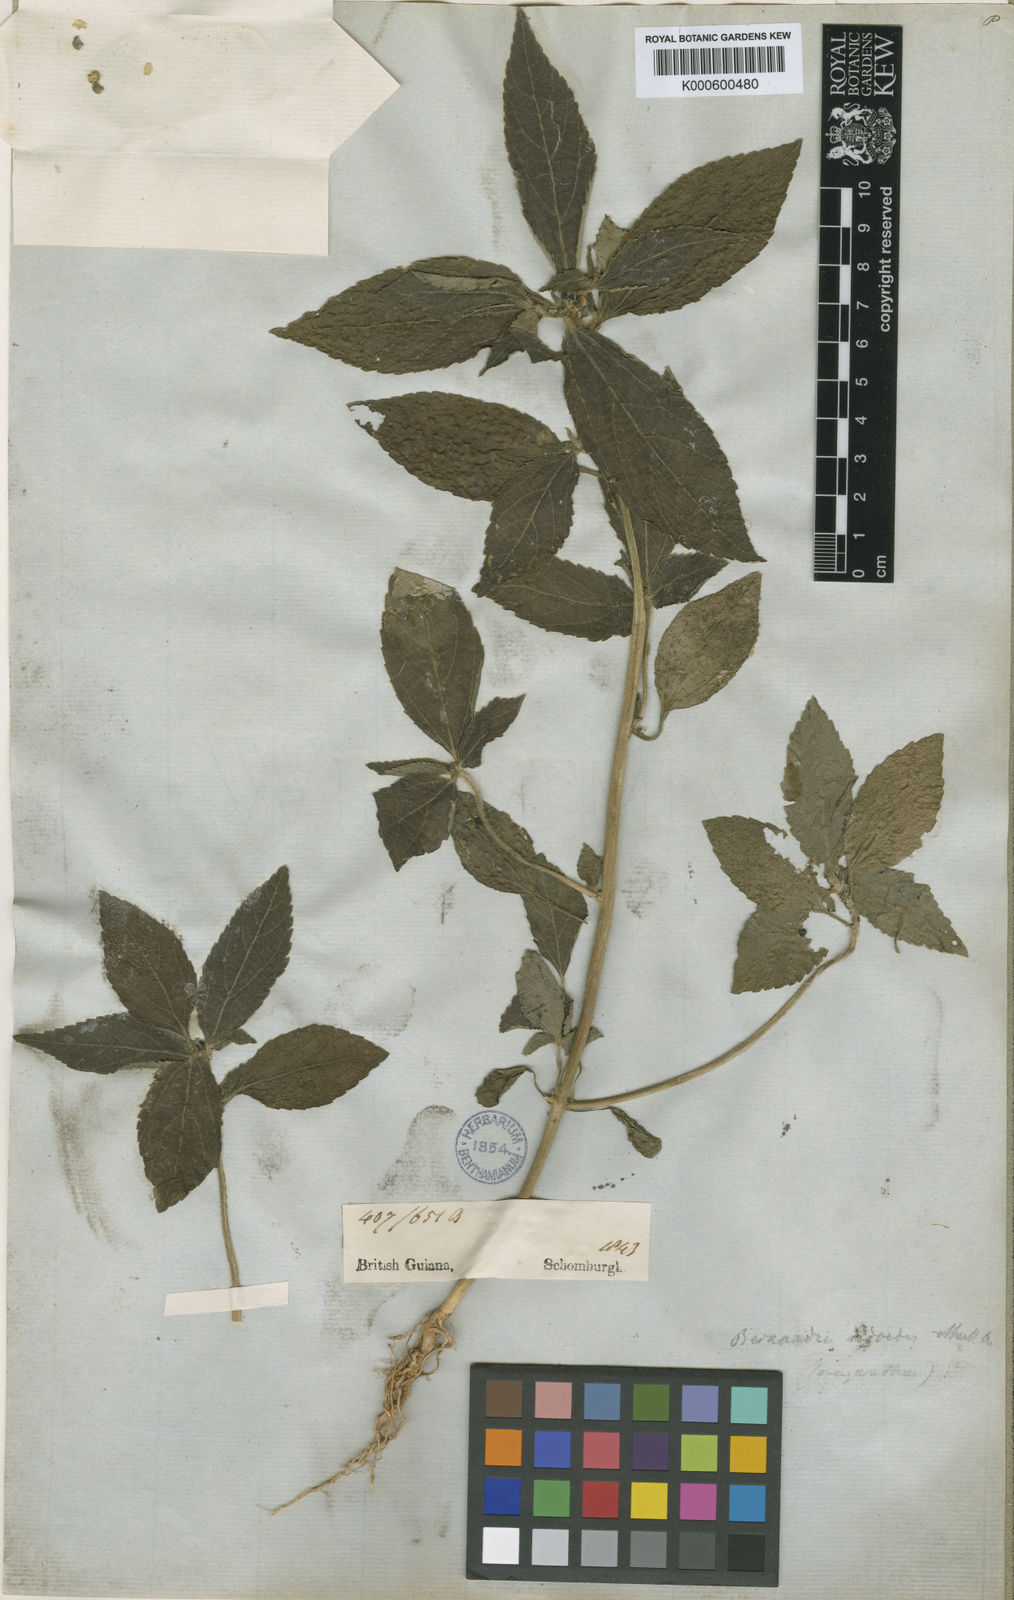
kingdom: Plantae
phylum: Tracheophyta
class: Magnoliopsida
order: Malpighiales
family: Euphorbiaceae
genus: Bernardia
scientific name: Bernardia
